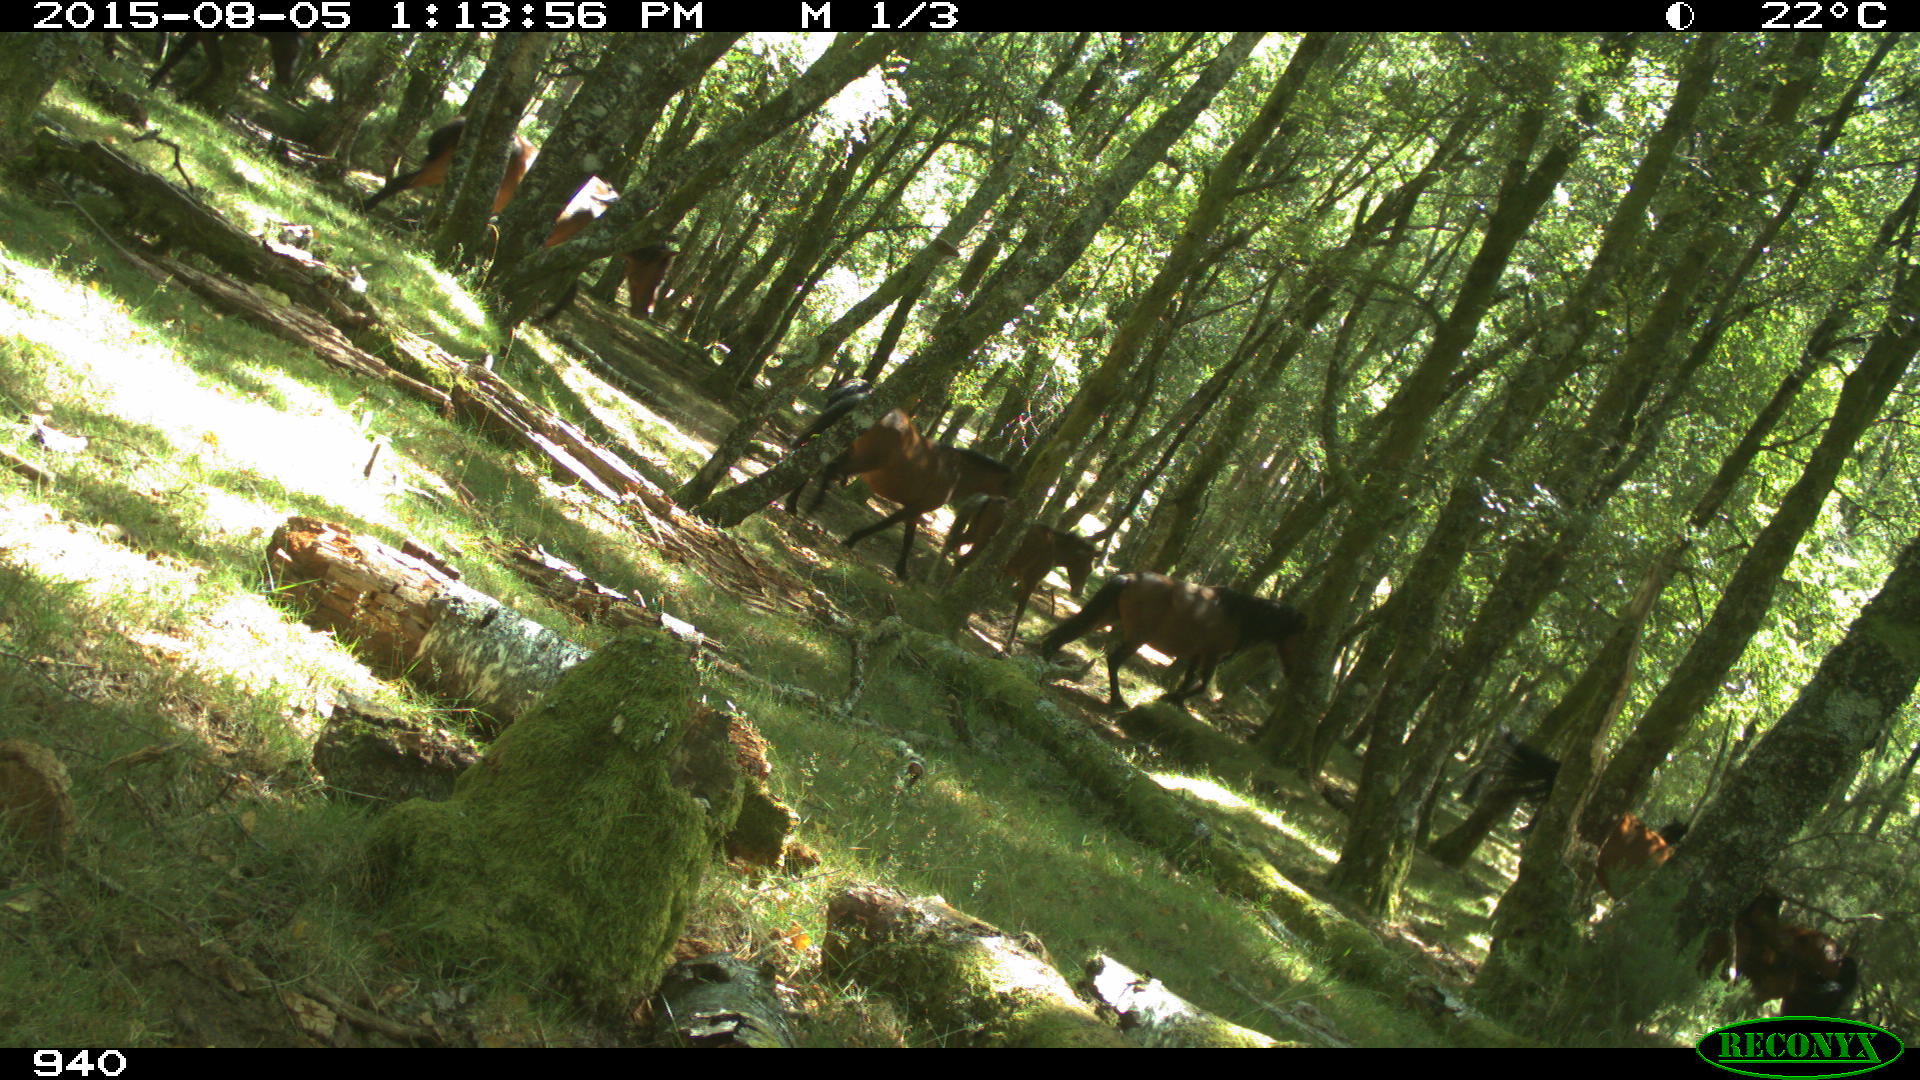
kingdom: Animalia
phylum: Chordata
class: Mammalia
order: Perissodactyla
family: Equidae
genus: Equus
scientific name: Equus caballus
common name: Horse
